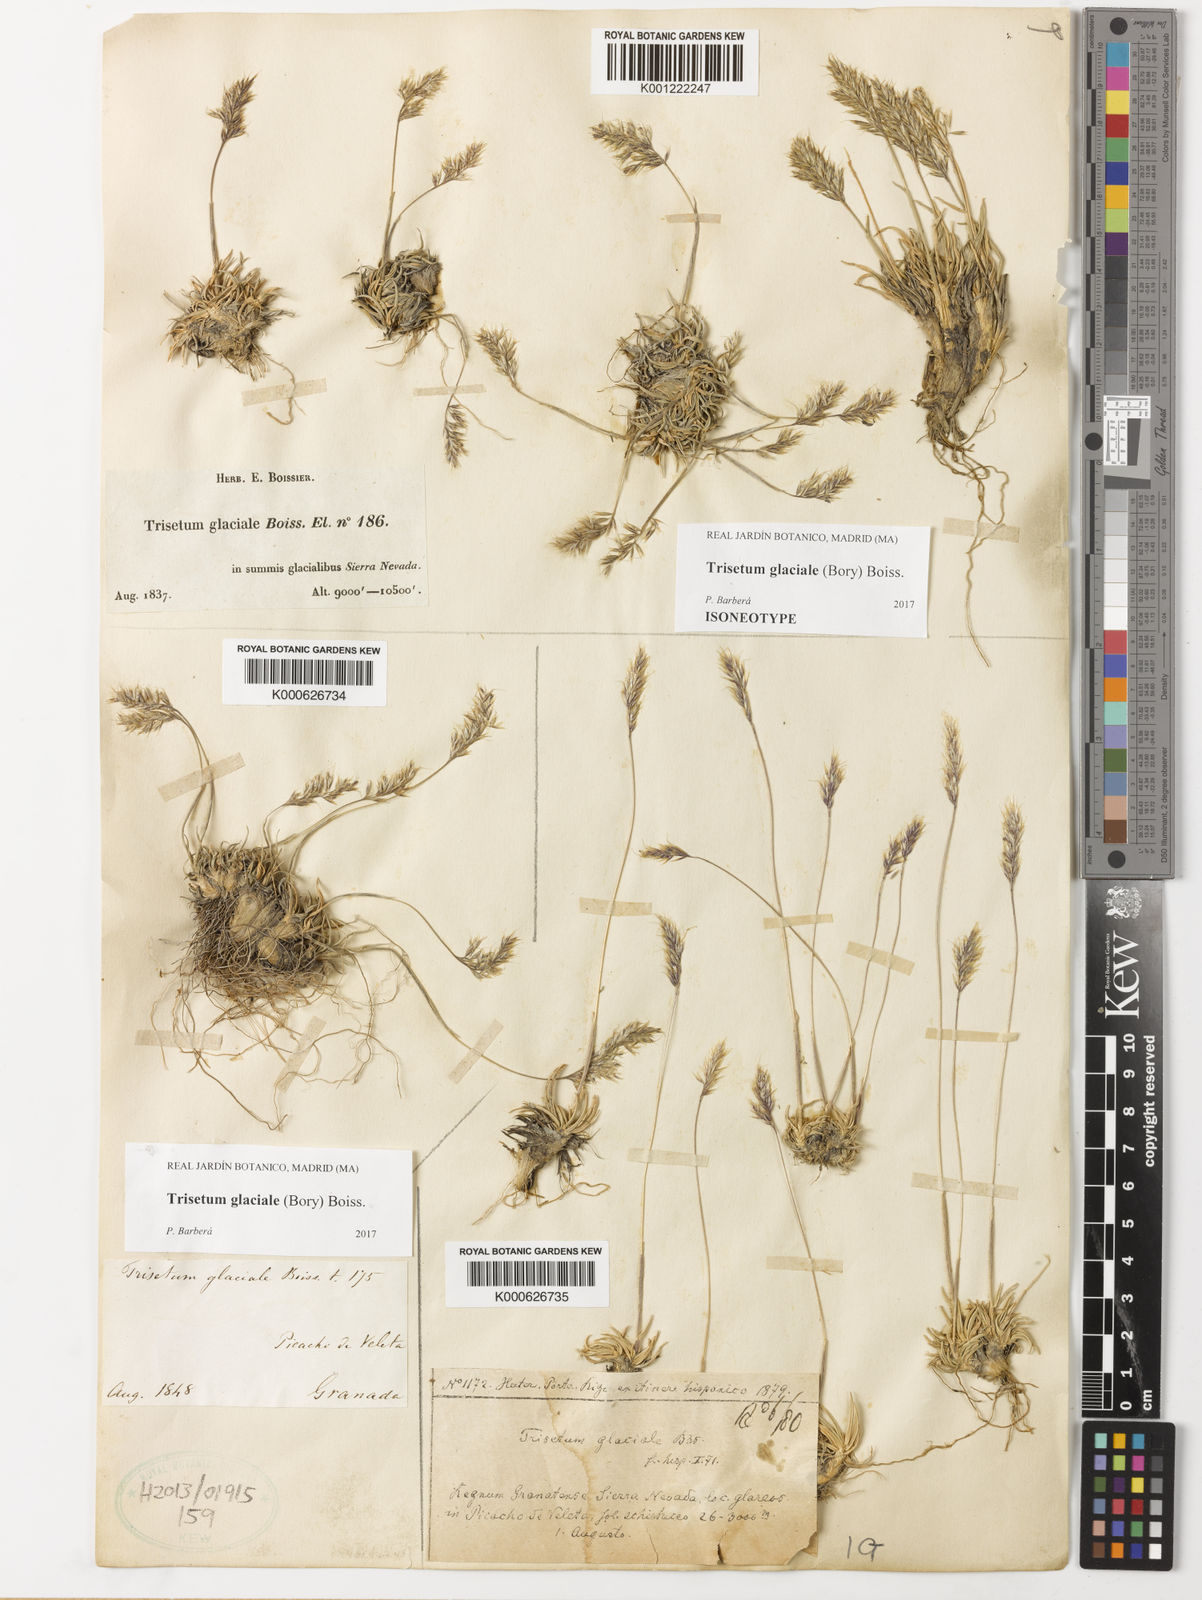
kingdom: Plantae
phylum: Tracheophyta
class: Liliopsida
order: Poales
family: Poaceae
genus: Acrospelion
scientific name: Acrospelion glaciale
